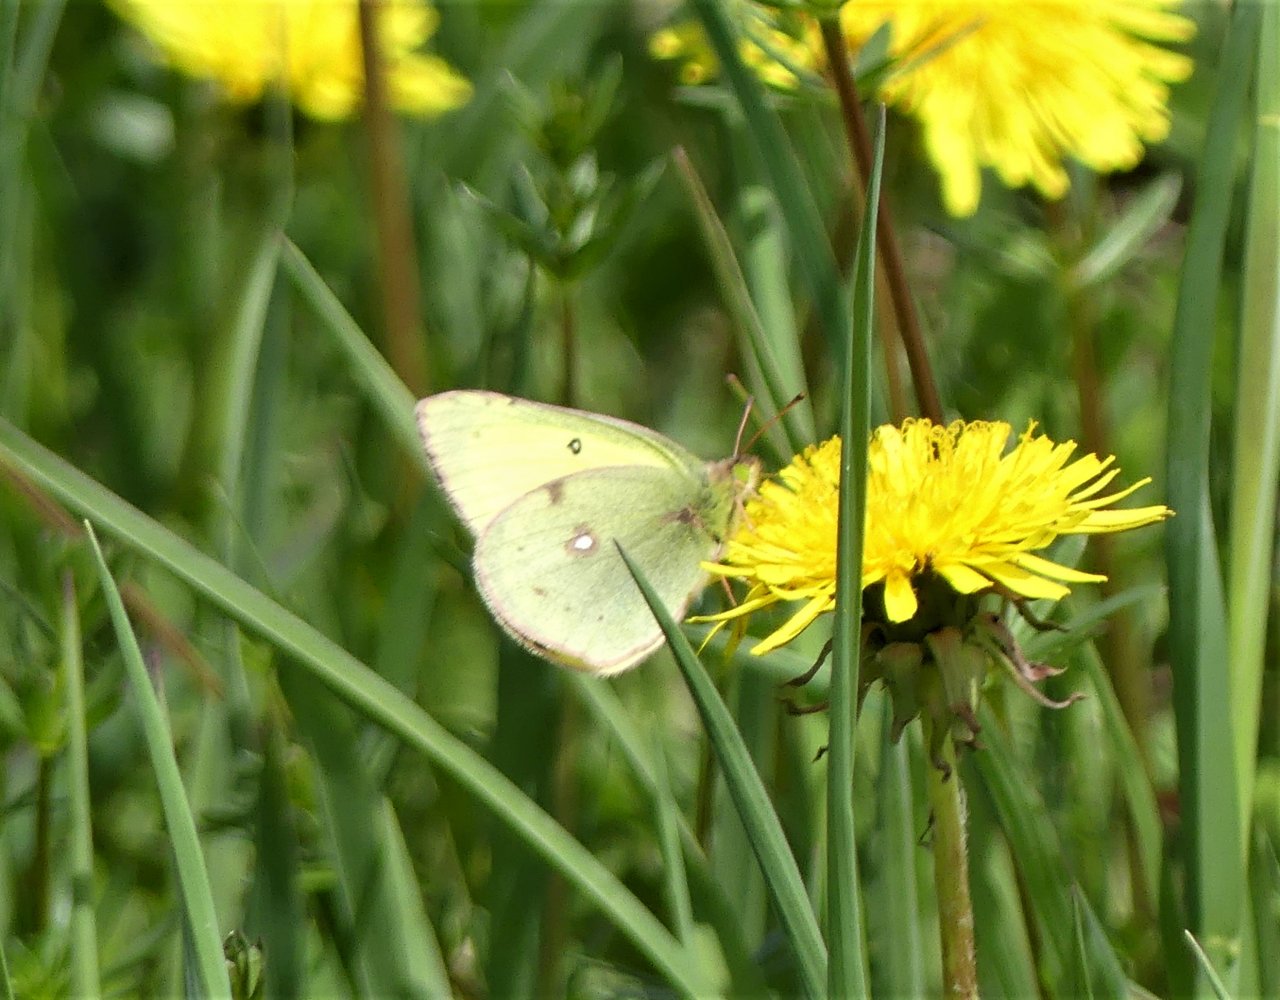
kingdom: Animalia
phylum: Arthropoda
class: Insecta
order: Lepidoptera
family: Pieridae
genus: Colias
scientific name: Colias philodice
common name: Clouded Sulphur
